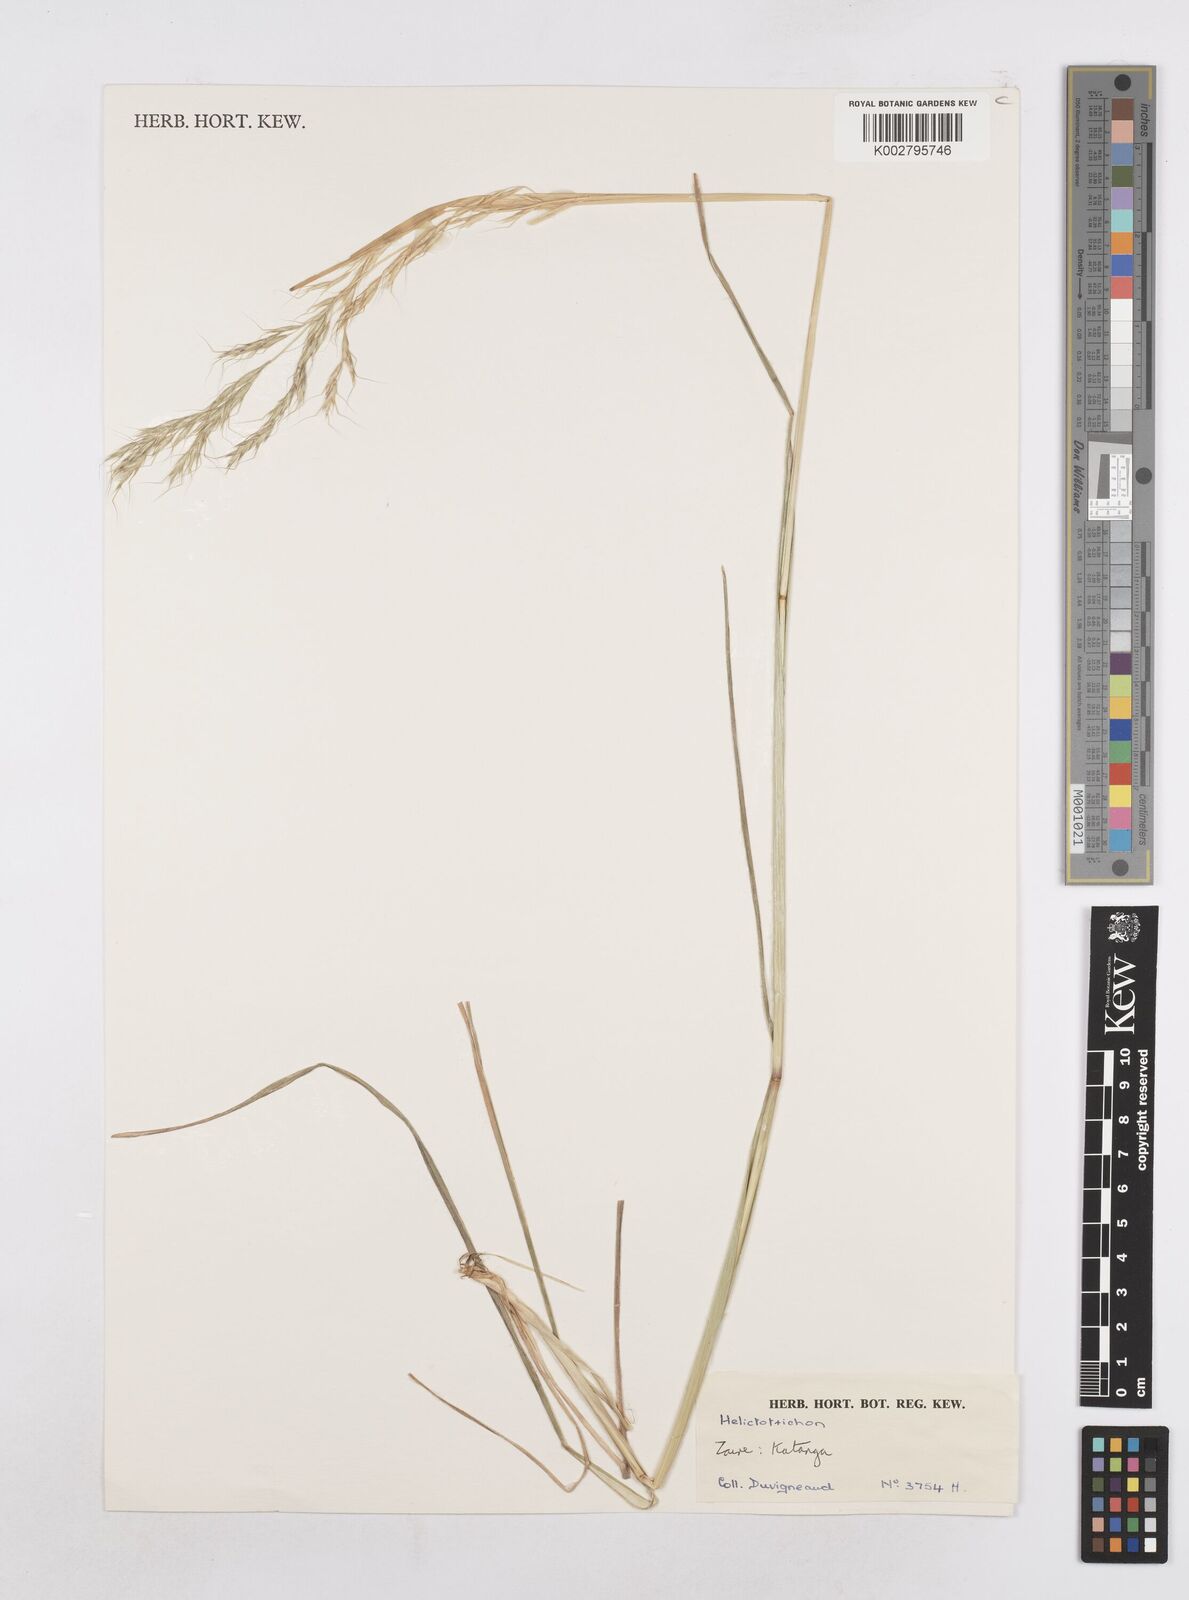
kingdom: Plantae
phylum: Tracheophyta
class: Liliopsida
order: Poales
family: Poaceae
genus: Trisetopsis
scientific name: Trisetopsis elongata
